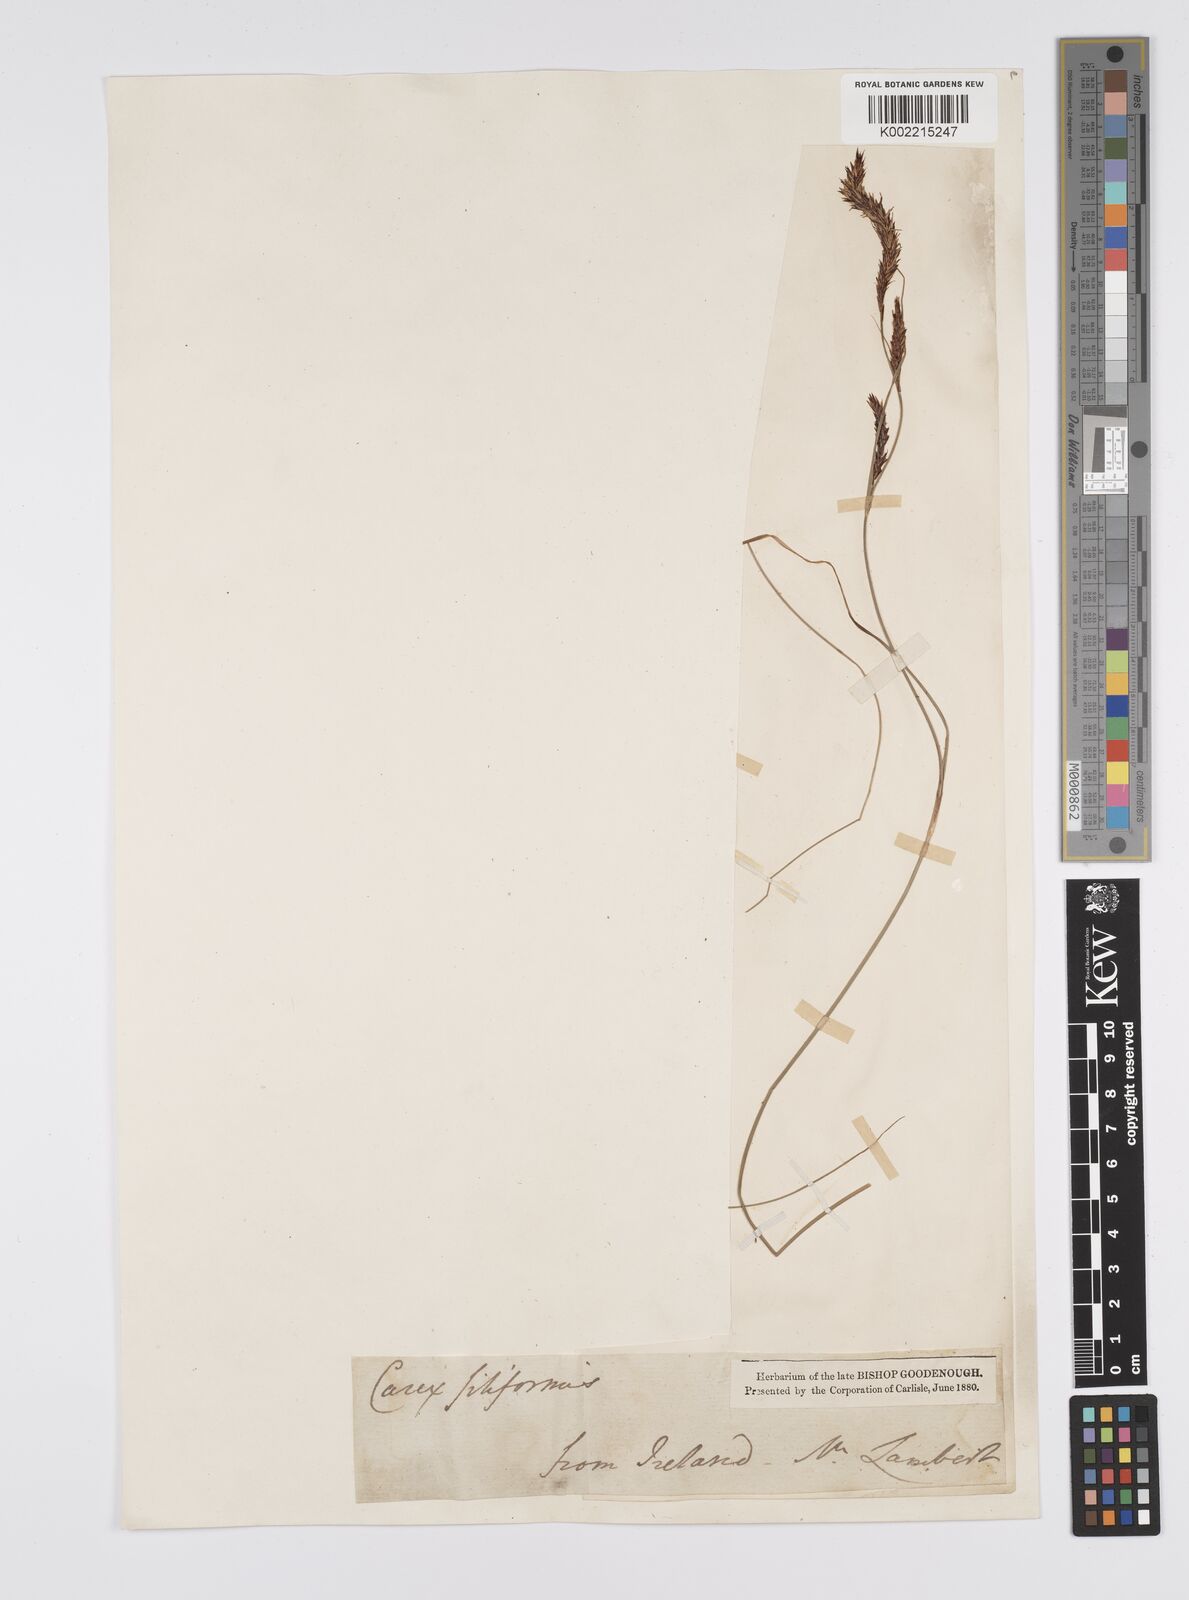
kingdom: Plantae
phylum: Tracheophyta
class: Liliopsida
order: Poales
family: Cyperaceae
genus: Carex
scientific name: Carex lasiocarpa
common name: Slender sedge
